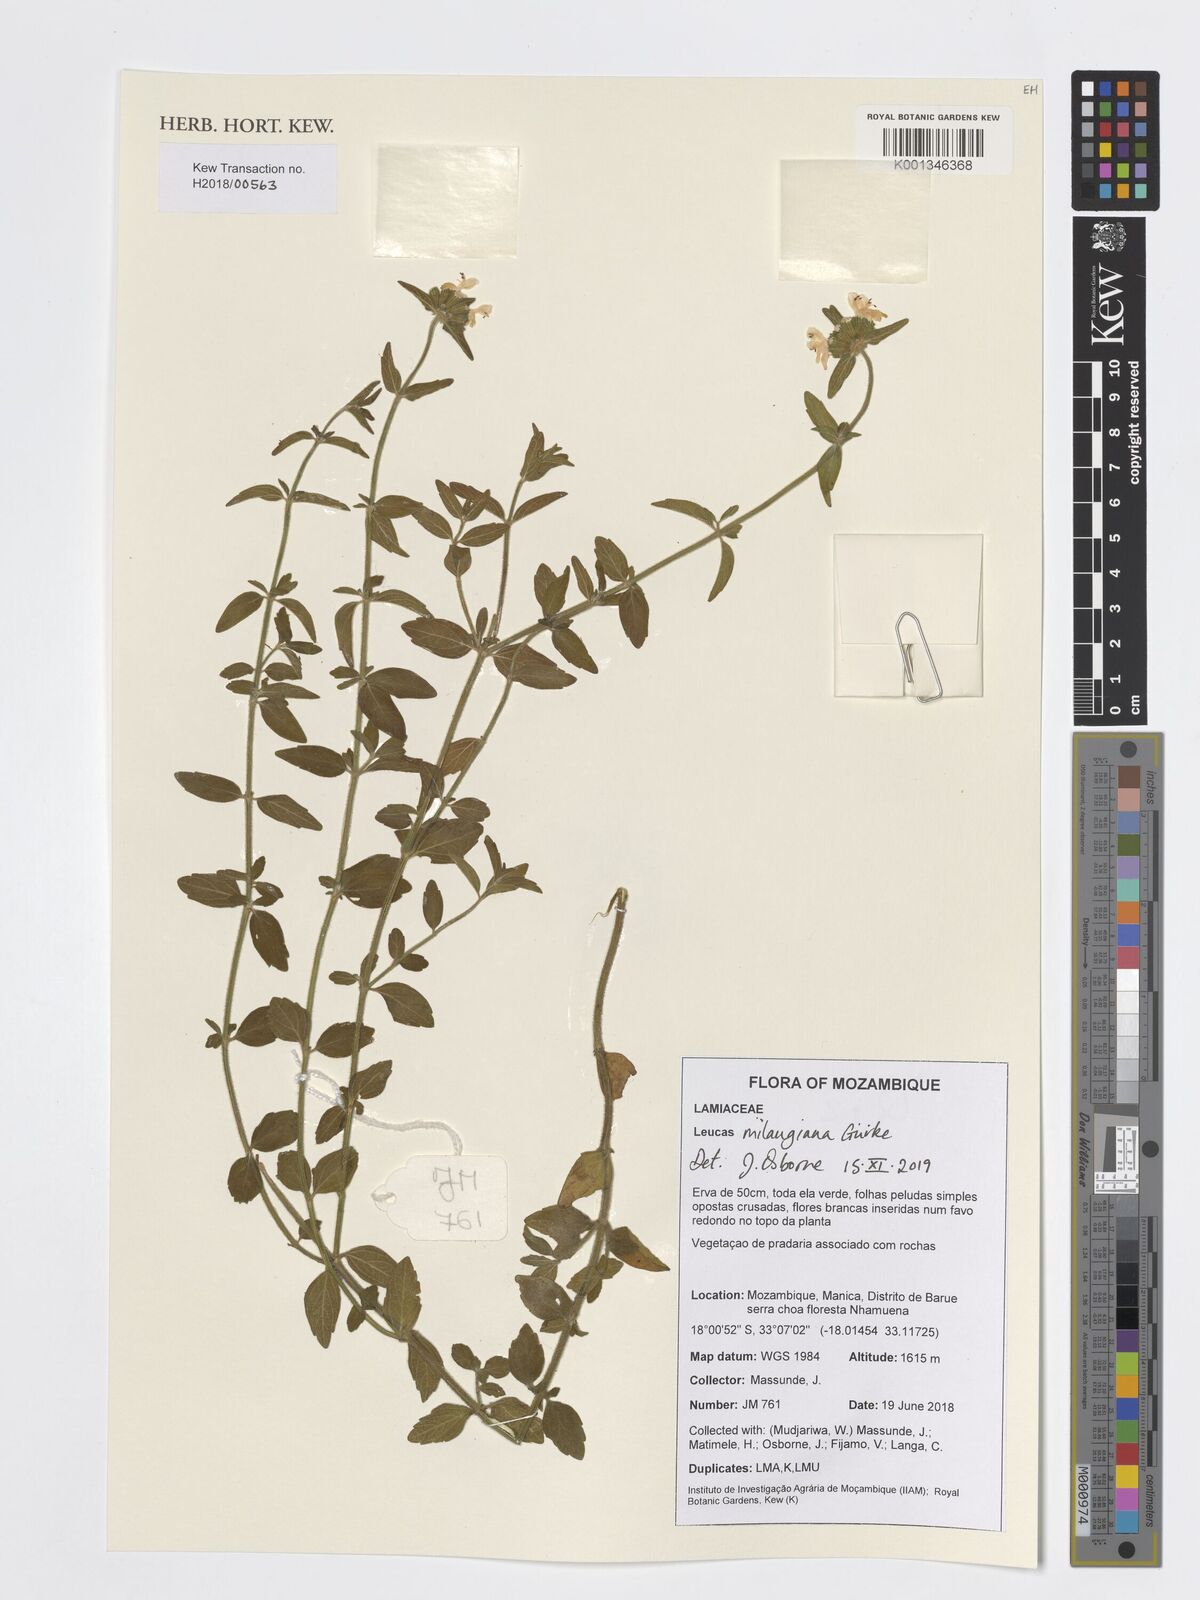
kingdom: Plantae
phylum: Tracheophyta
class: Magnoliopsida
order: Lamiales
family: Lamiaceae
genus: Leucas
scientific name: Leucas milanjiana
